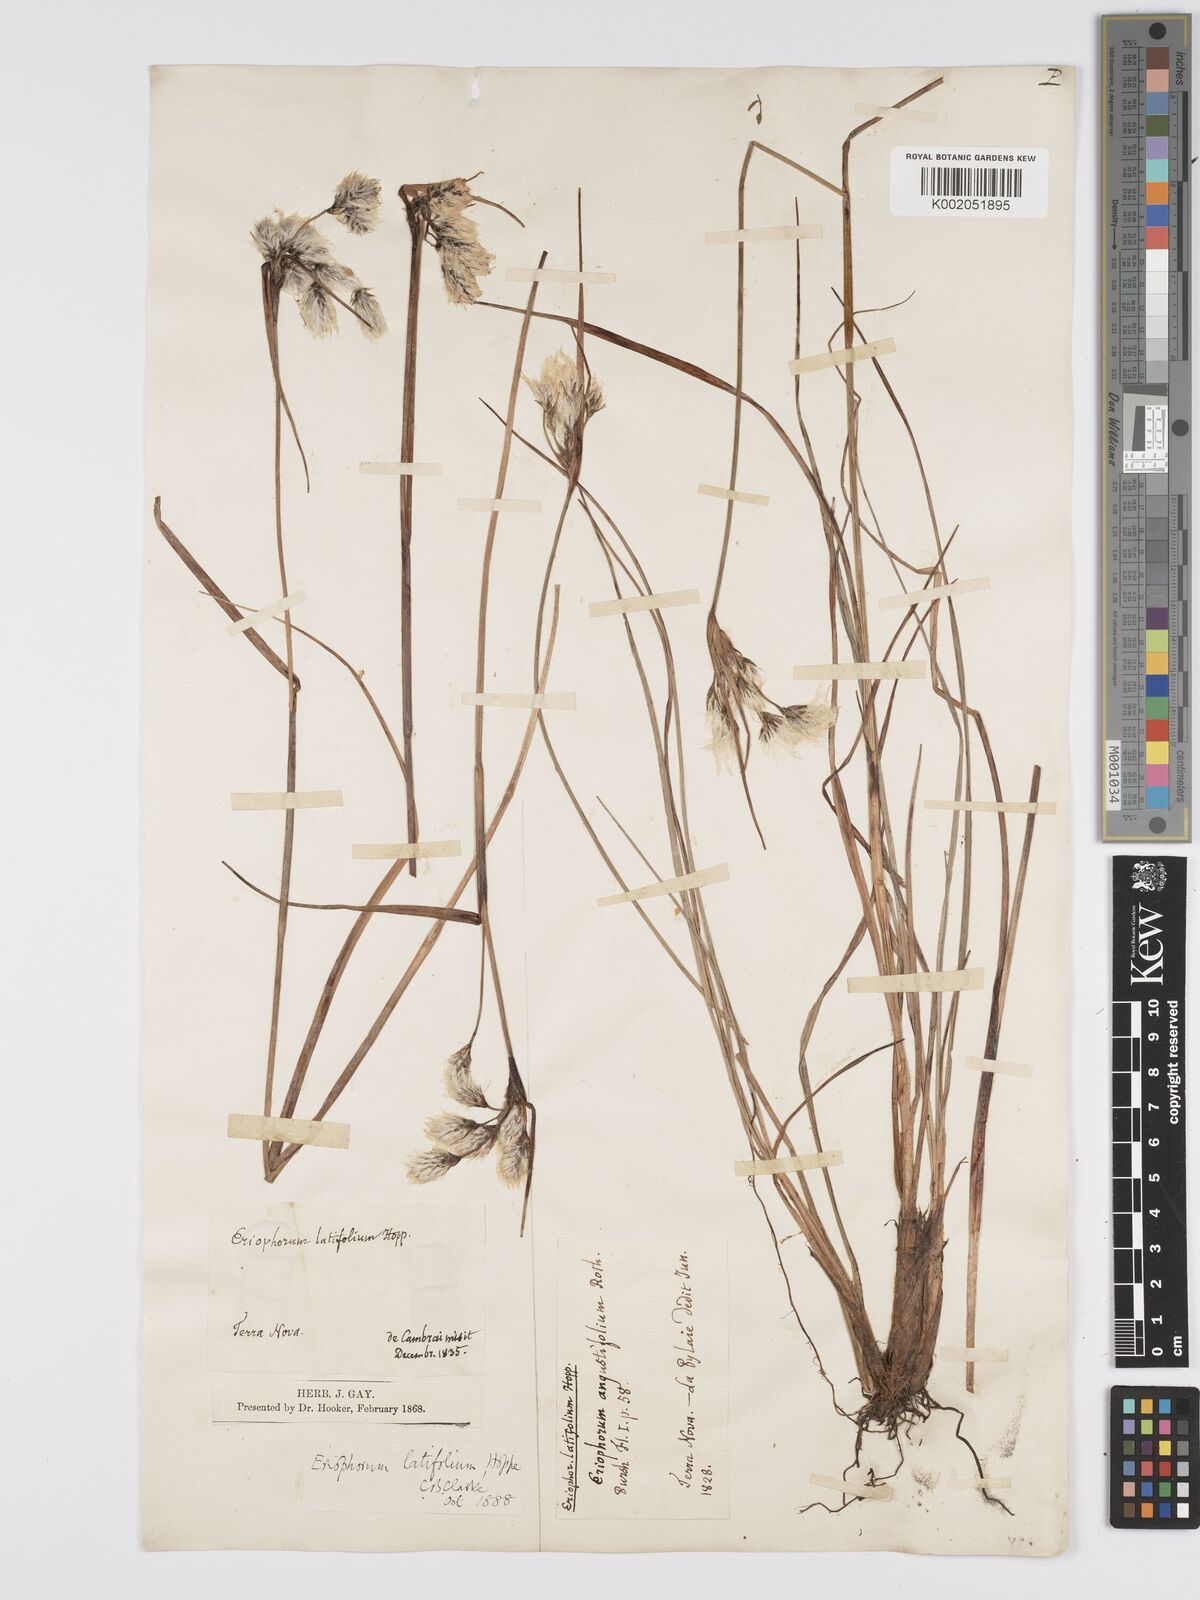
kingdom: Plantae
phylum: Tracheophyta
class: Liliopsida
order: Poales
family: Cyperaceae
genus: Eriophorum
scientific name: Eriophorum latifolium
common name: Broad-leaved cottongrass
